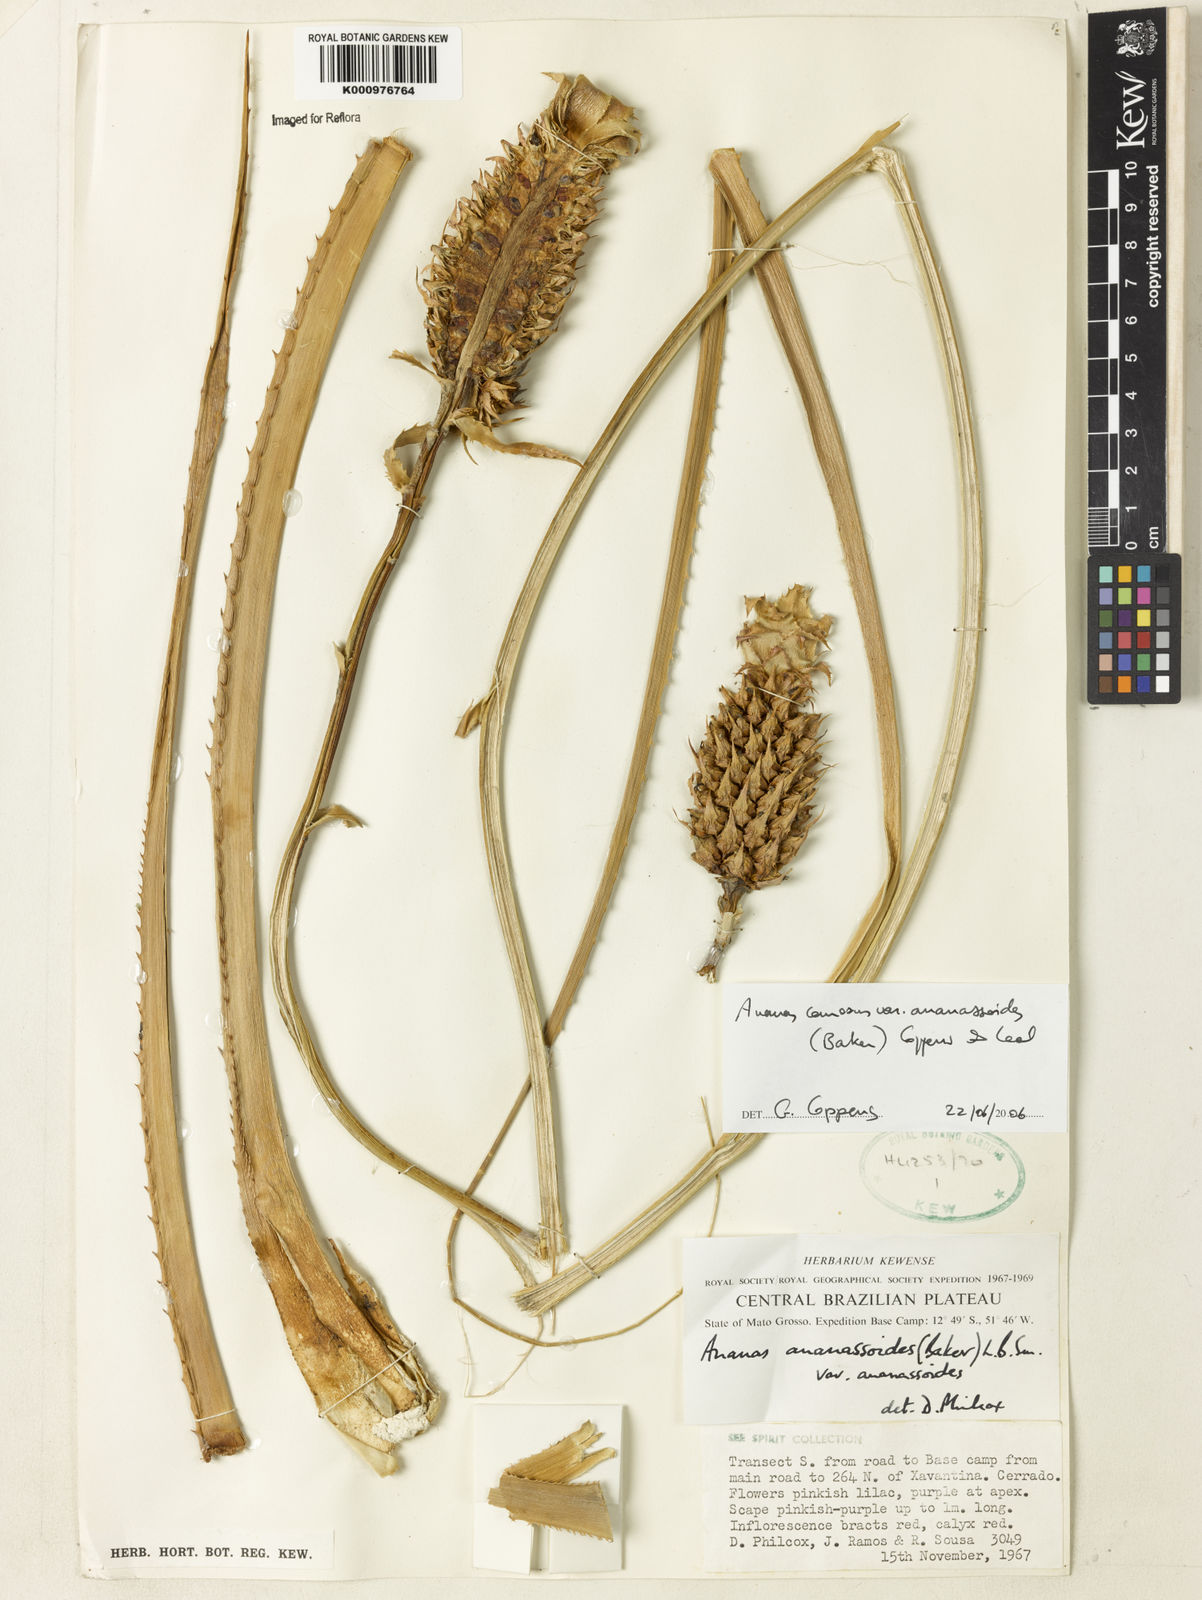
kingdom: Plantae
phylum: Tracheophyta
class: Liliopsida
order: Poales
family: Bromeliaceae
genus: Ananas
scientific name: Ananas comosus
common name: Pineapple
